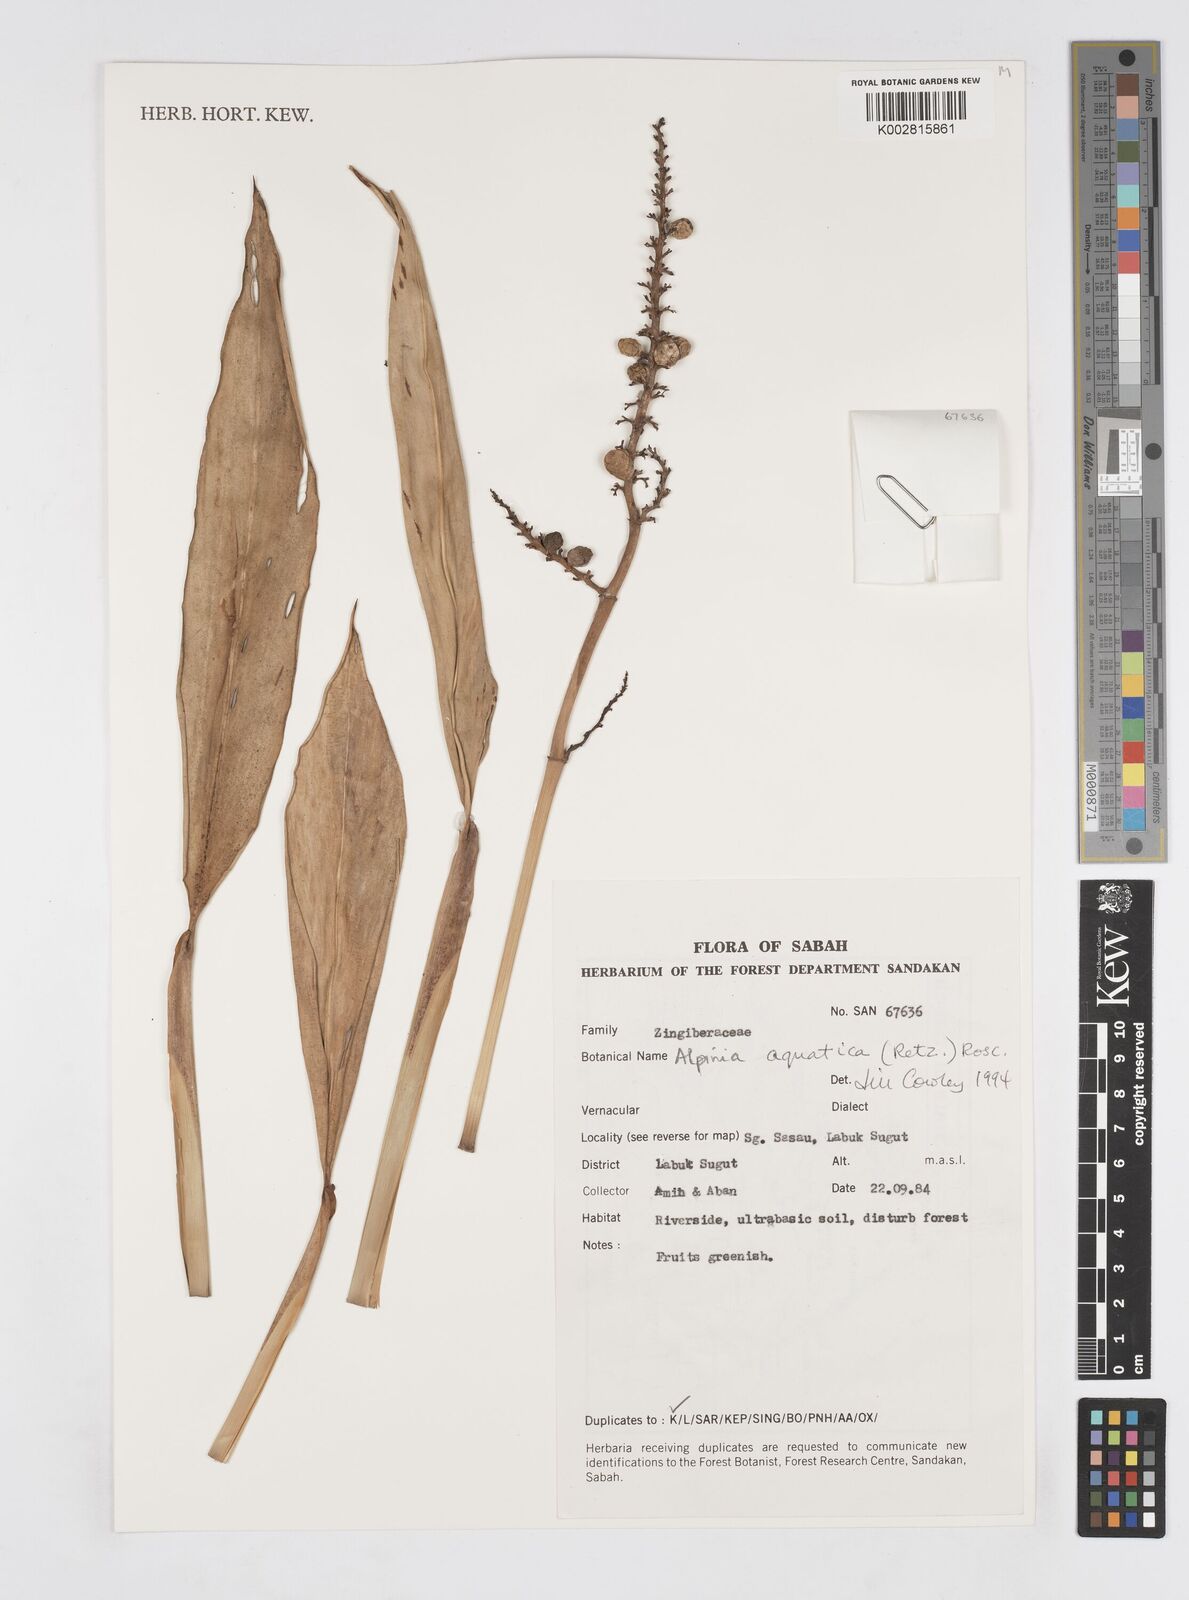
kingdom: Plantae
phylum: Tracheophyta
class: Liliopsida
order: Zingiberales
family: Zingiberaceae
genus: Alpinia
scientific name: Alpinia aquatica
